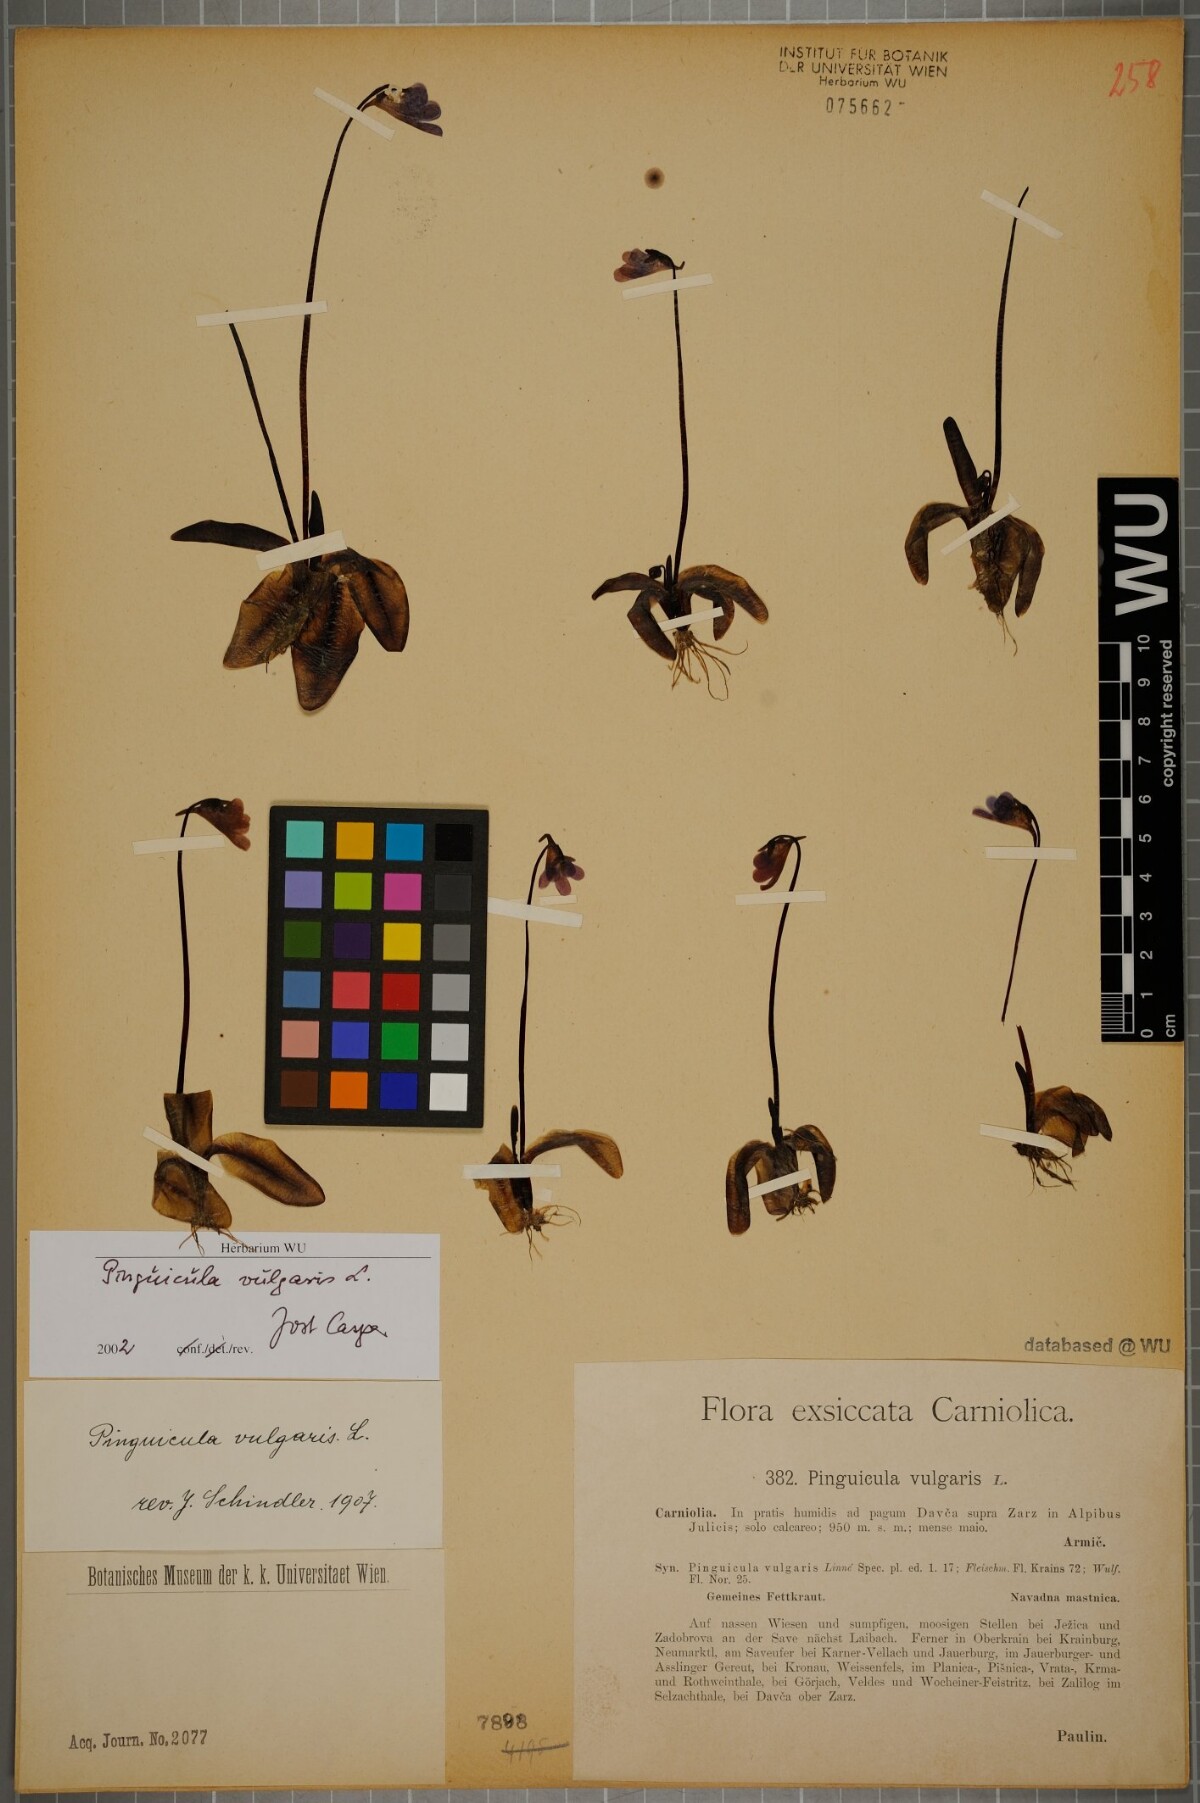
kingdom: Plantae
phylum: Tracheophyta
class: Magnoliopsida
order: Lamiales
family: Lentibulariaceae
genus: Pinguicula
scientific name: Pinguicula vulgaris
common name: Common butterwort
